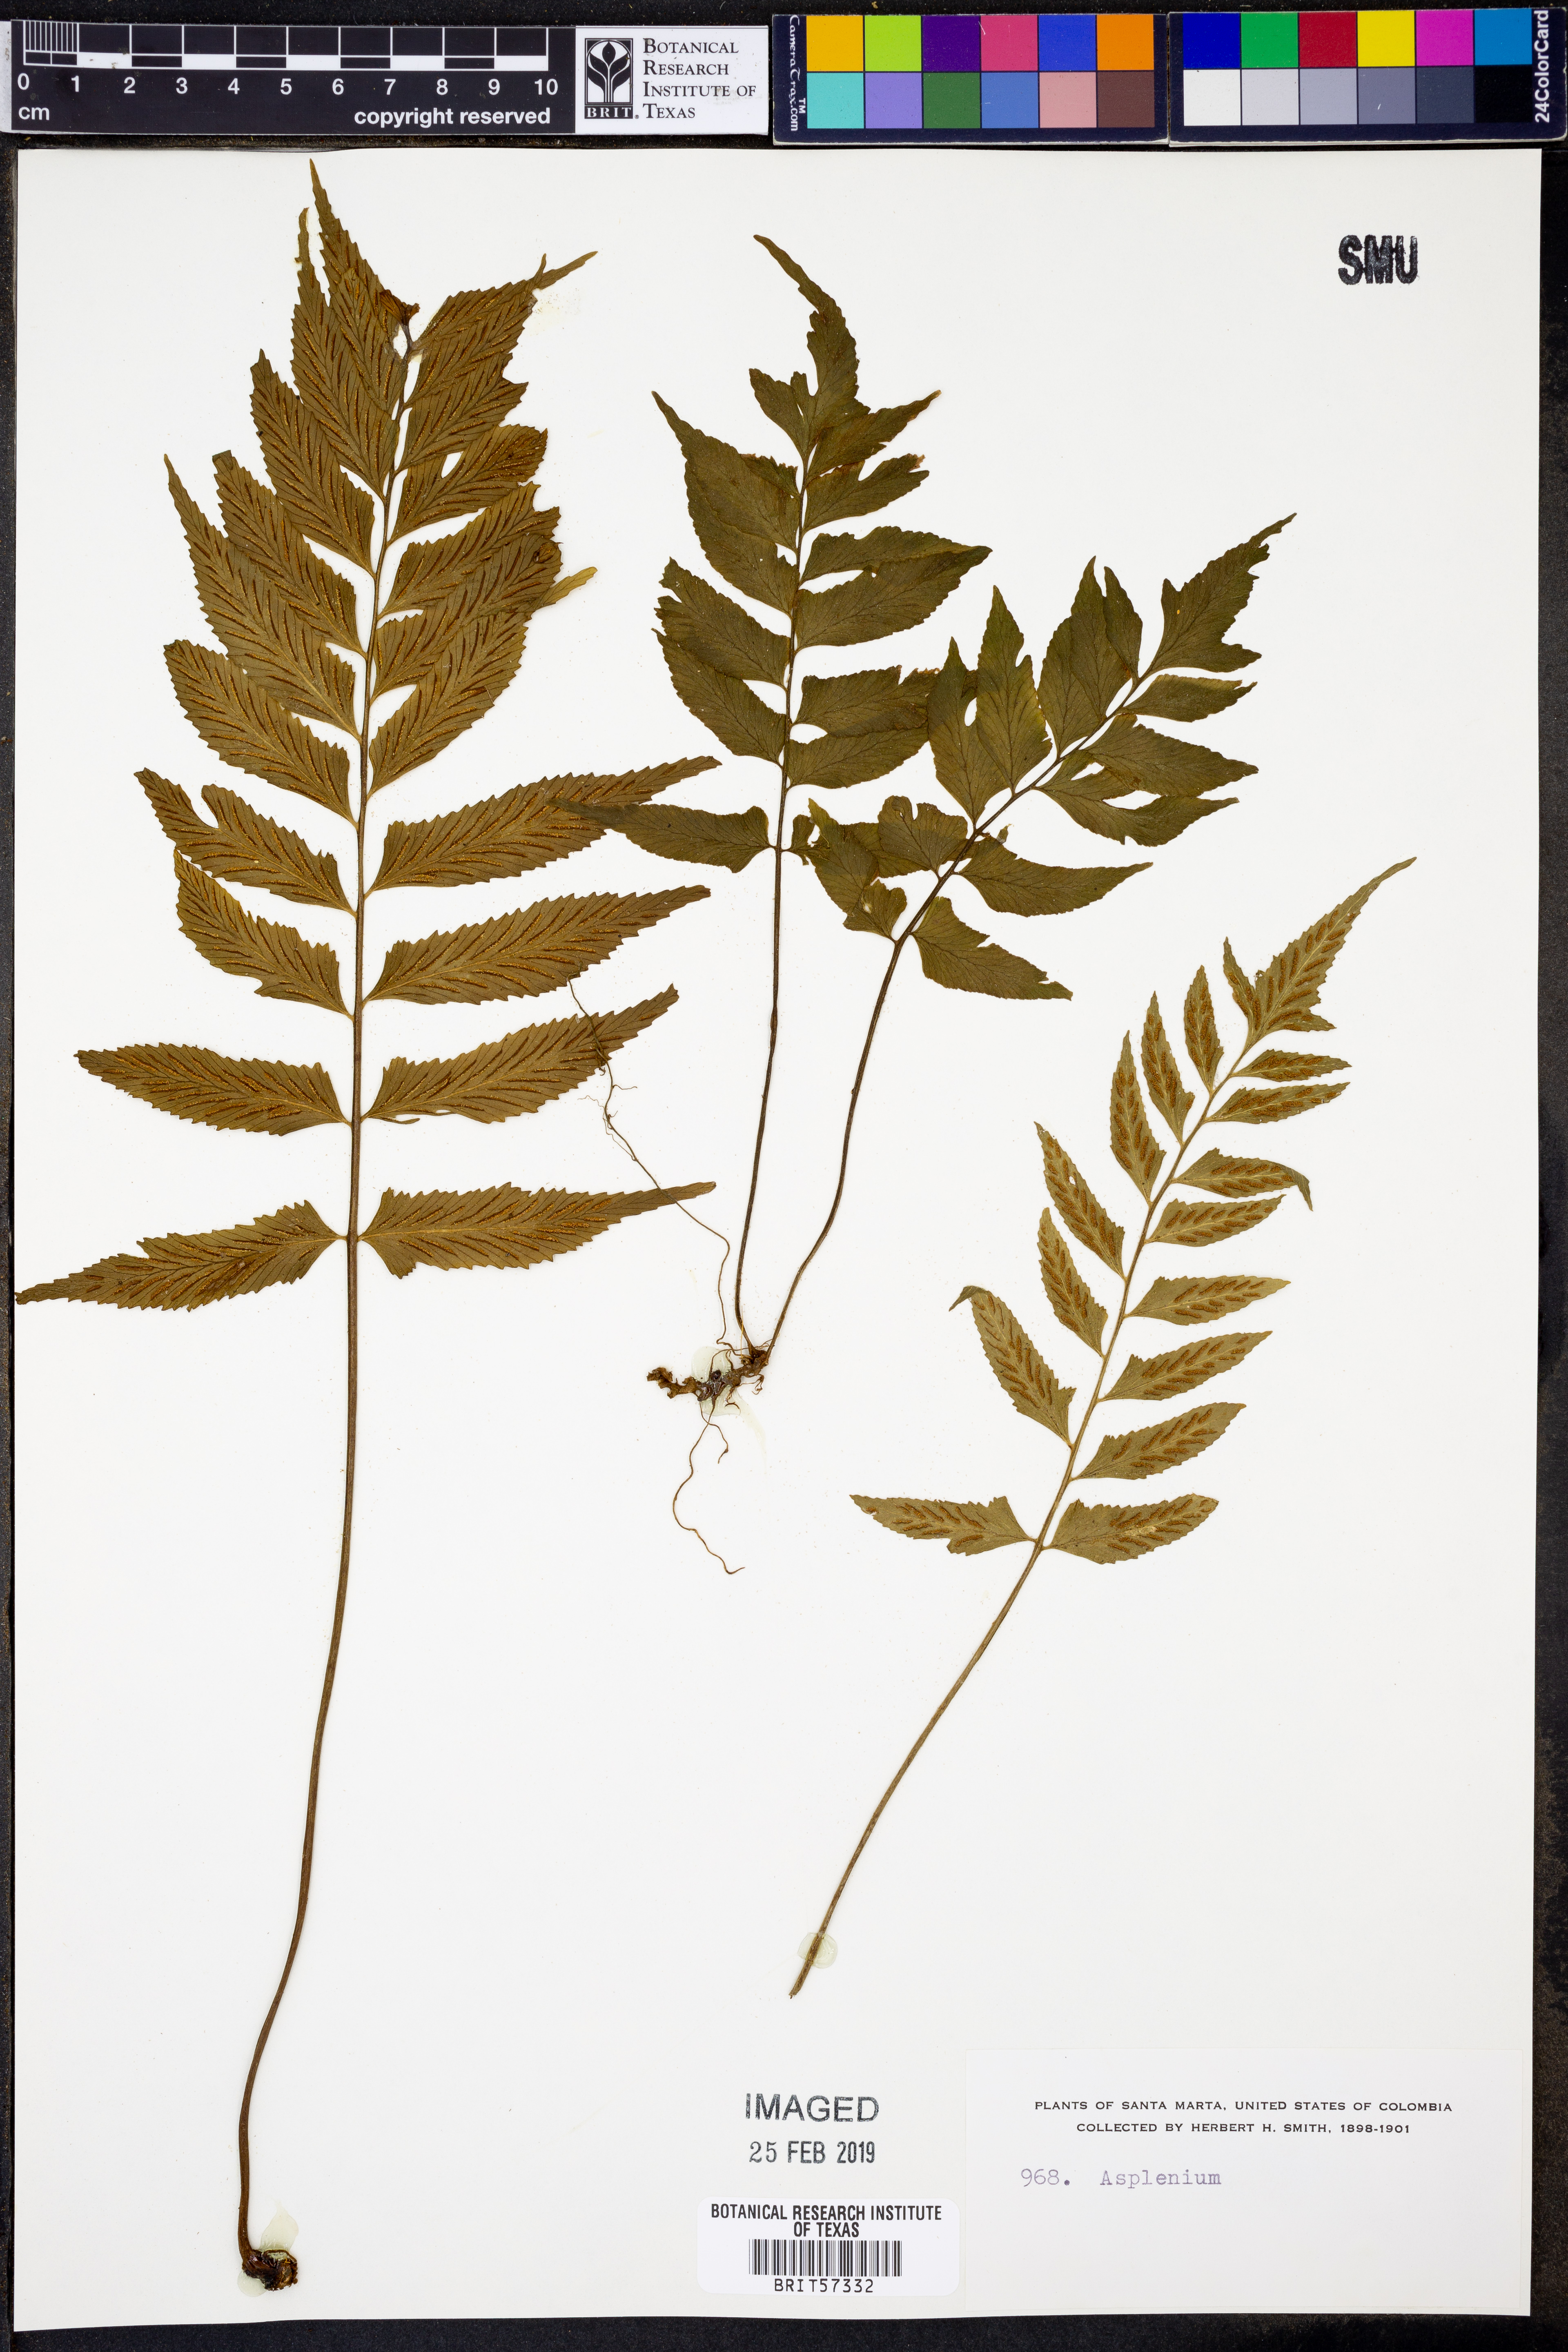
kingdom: Plantae
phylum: Tracheophyta
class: Polypodiopsida
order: Polypodiales
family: Aspleniaceae
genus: Asplenium
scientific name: Asplenium
